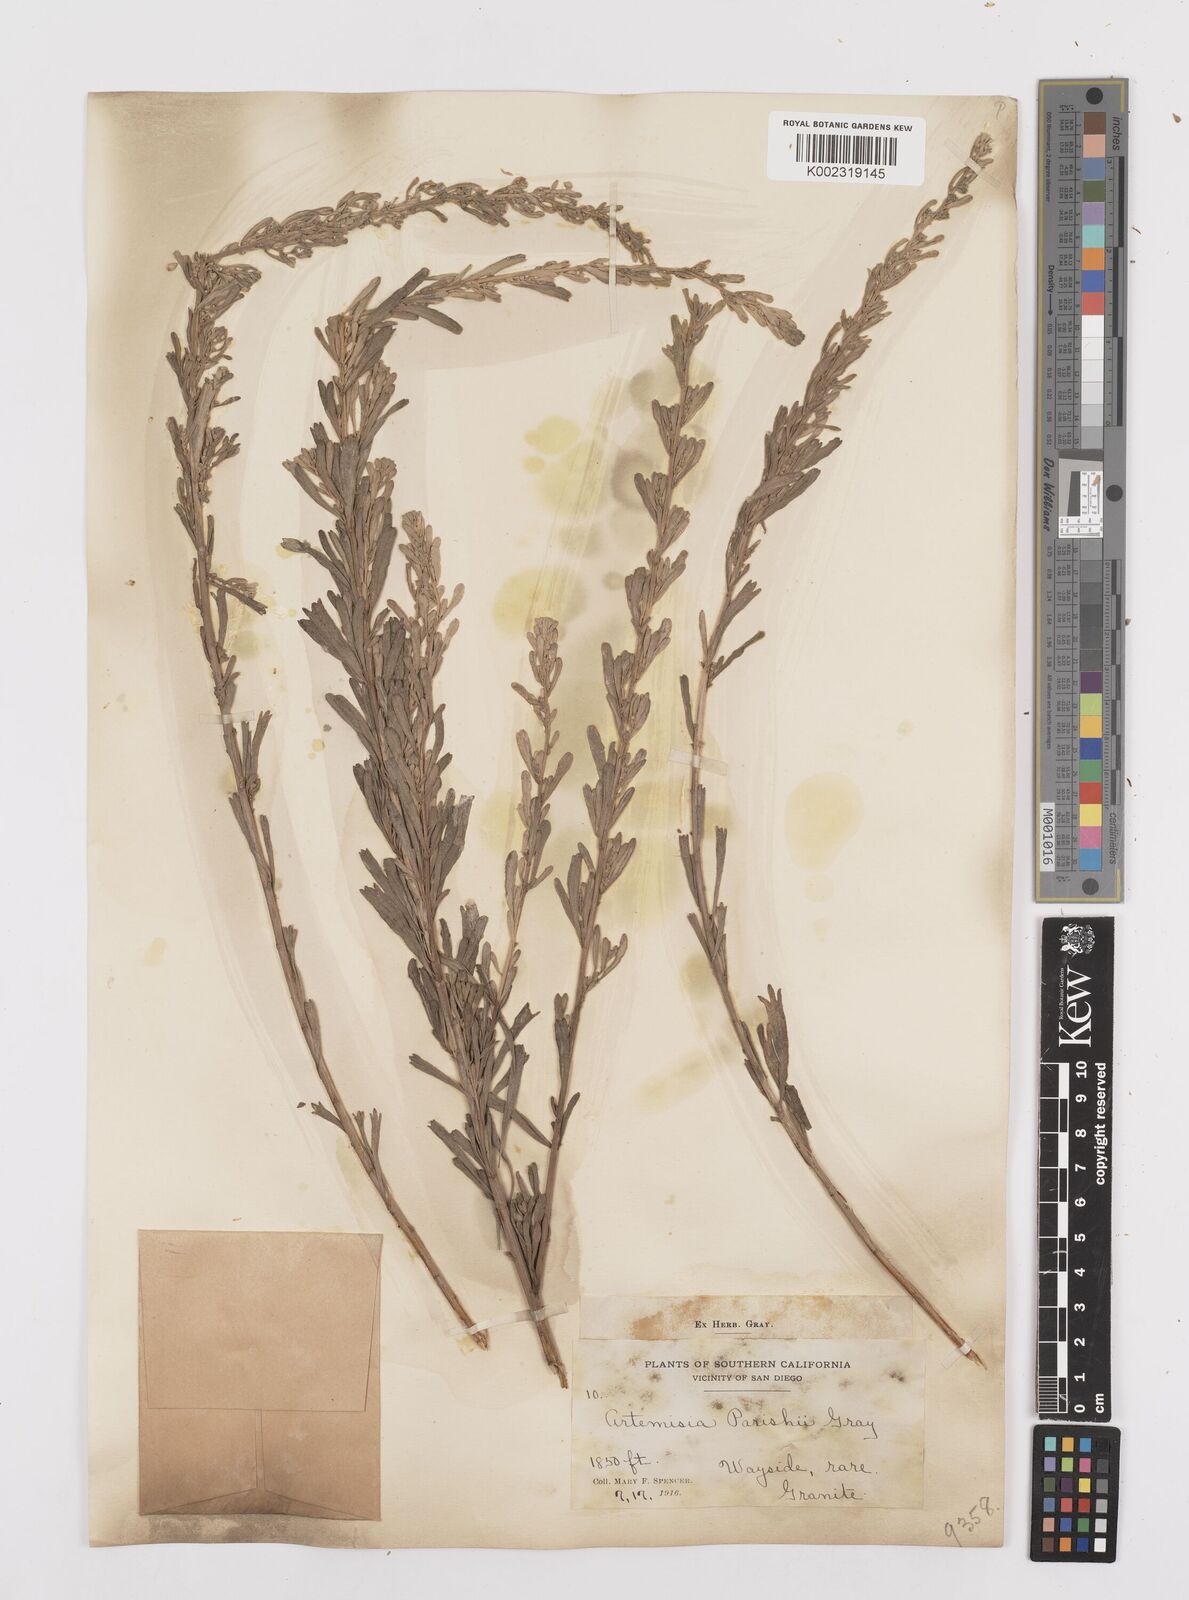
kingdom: Plantae
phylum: Tracheophyta
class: Magnoliopsida
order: Asterales
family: Asteraceae
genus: Artemisia
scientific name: Artemisia tridentata
